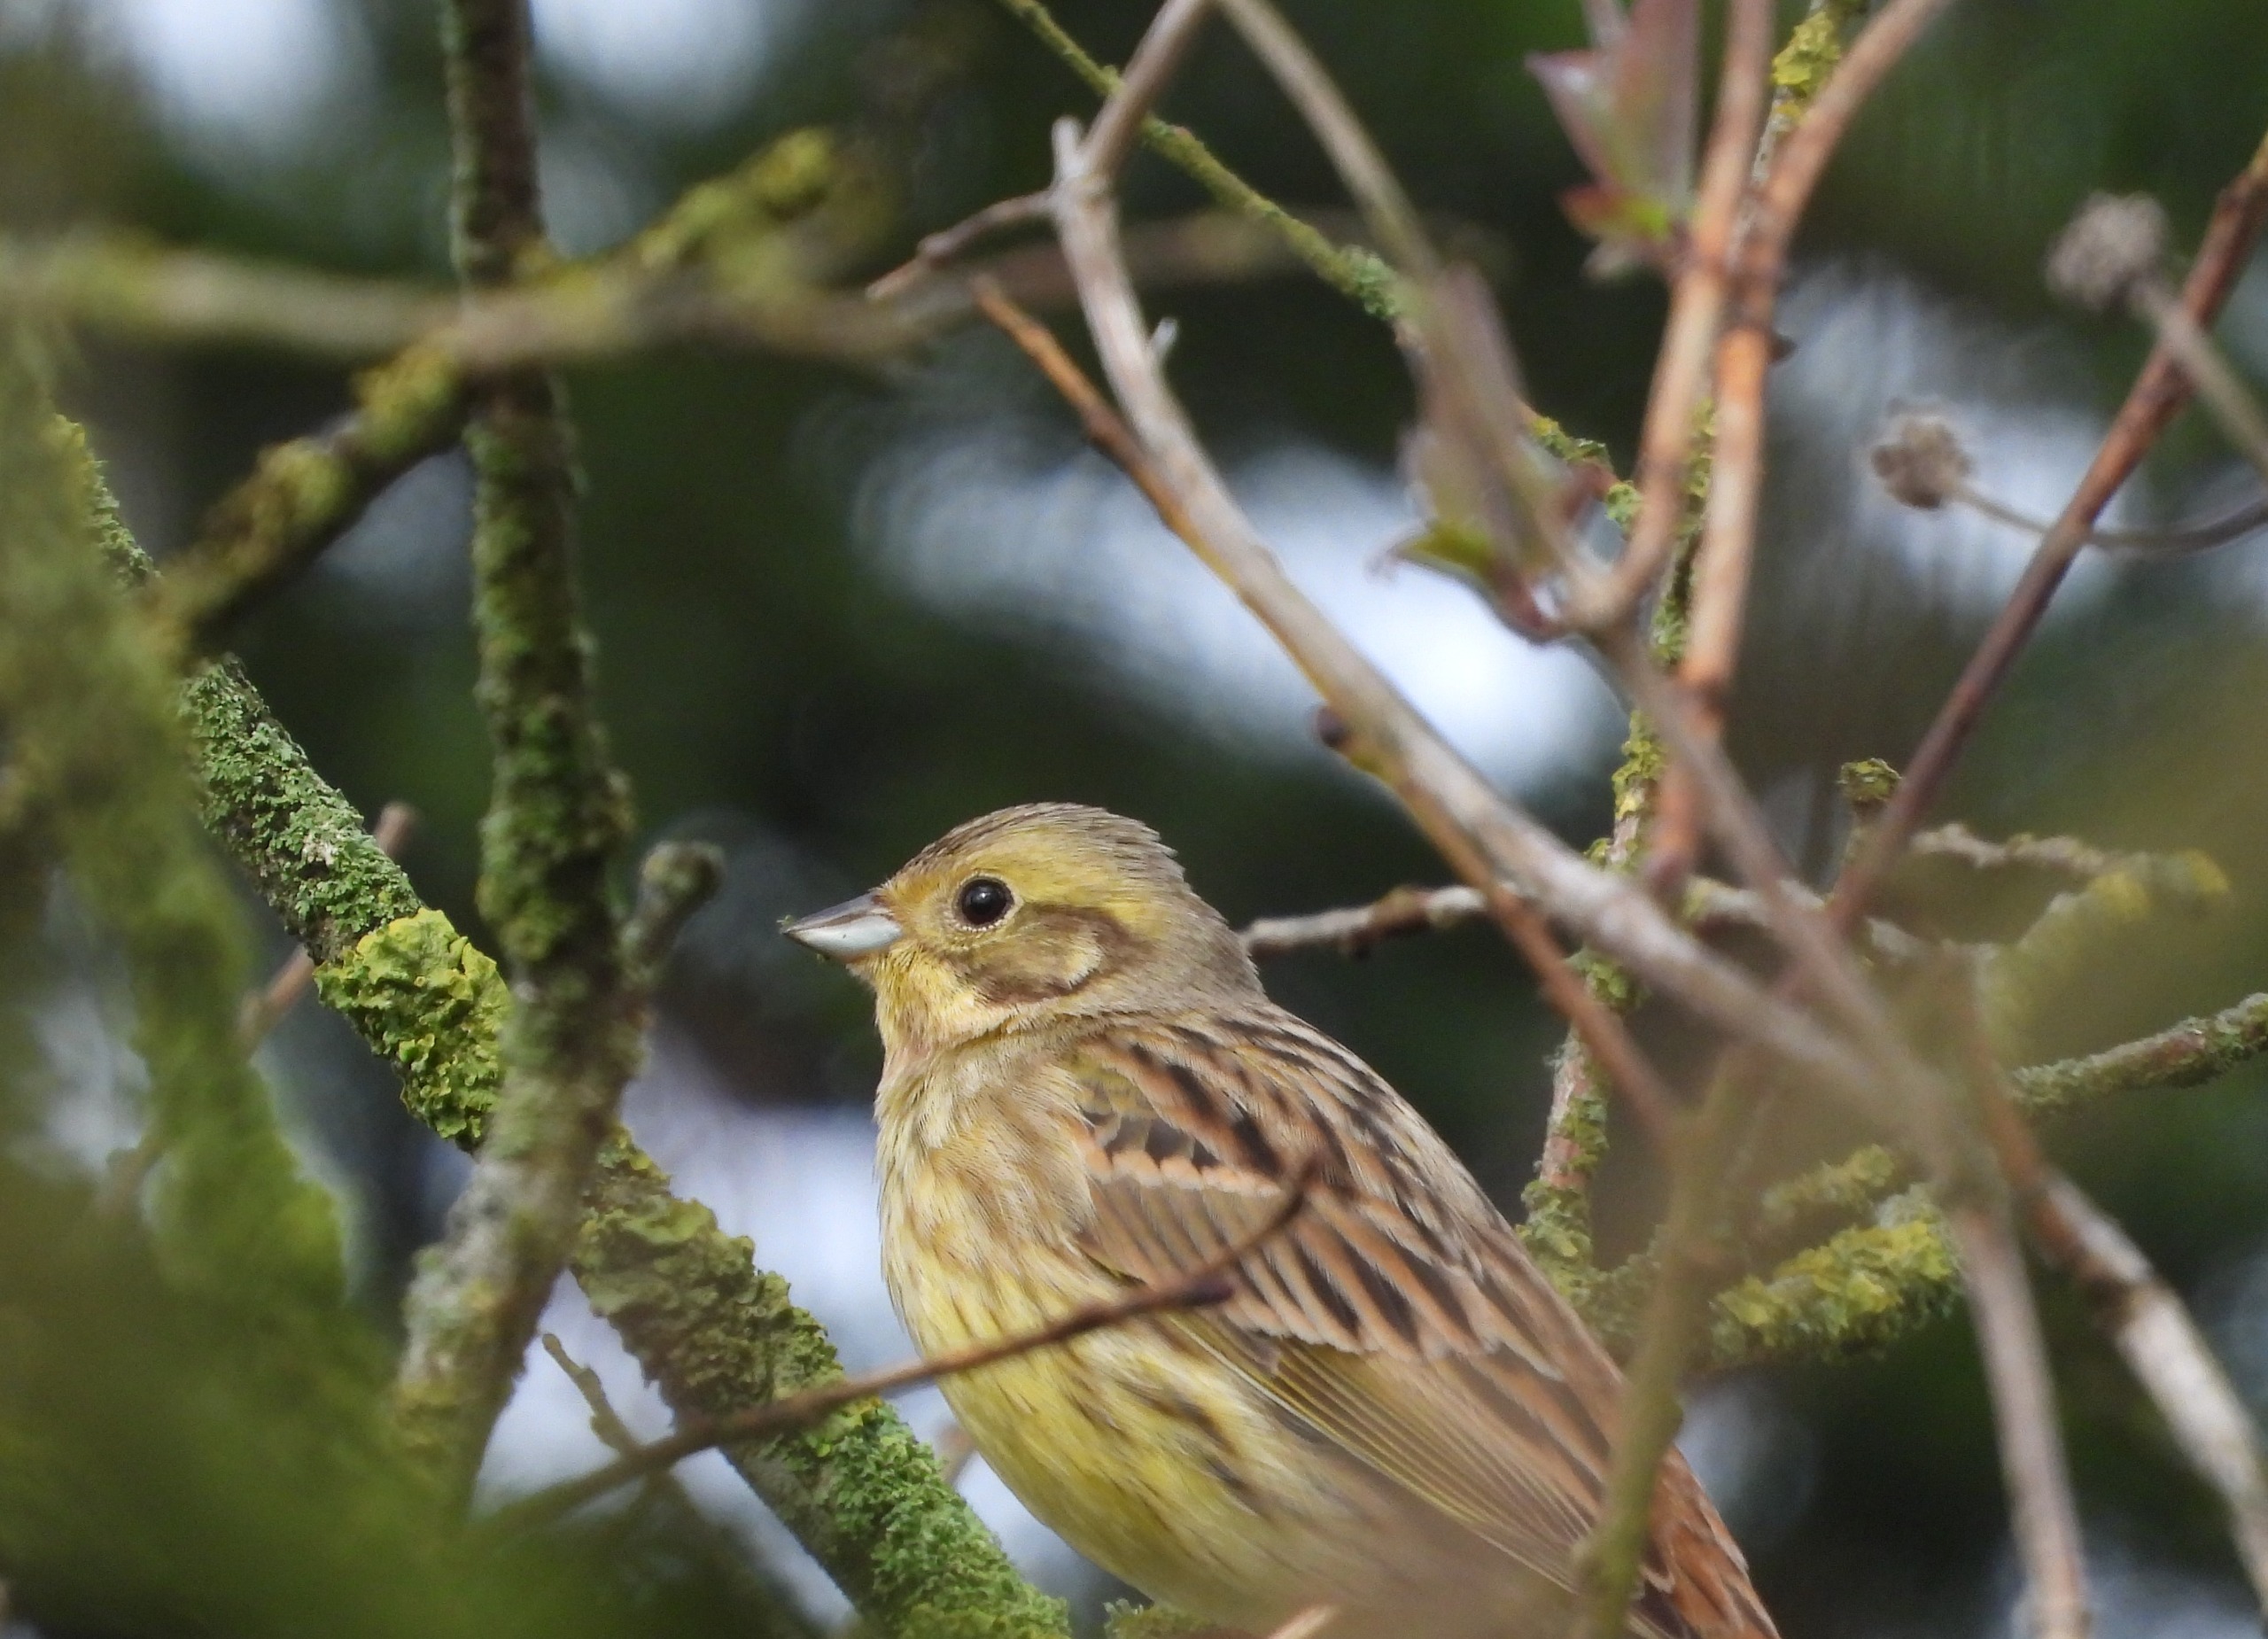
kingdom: Animalia
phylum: Chordata
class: Aves
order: Passeriformes
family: Emberizidae
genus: Emberiza
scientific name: Emberiza citrinella
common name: Gulspurv
